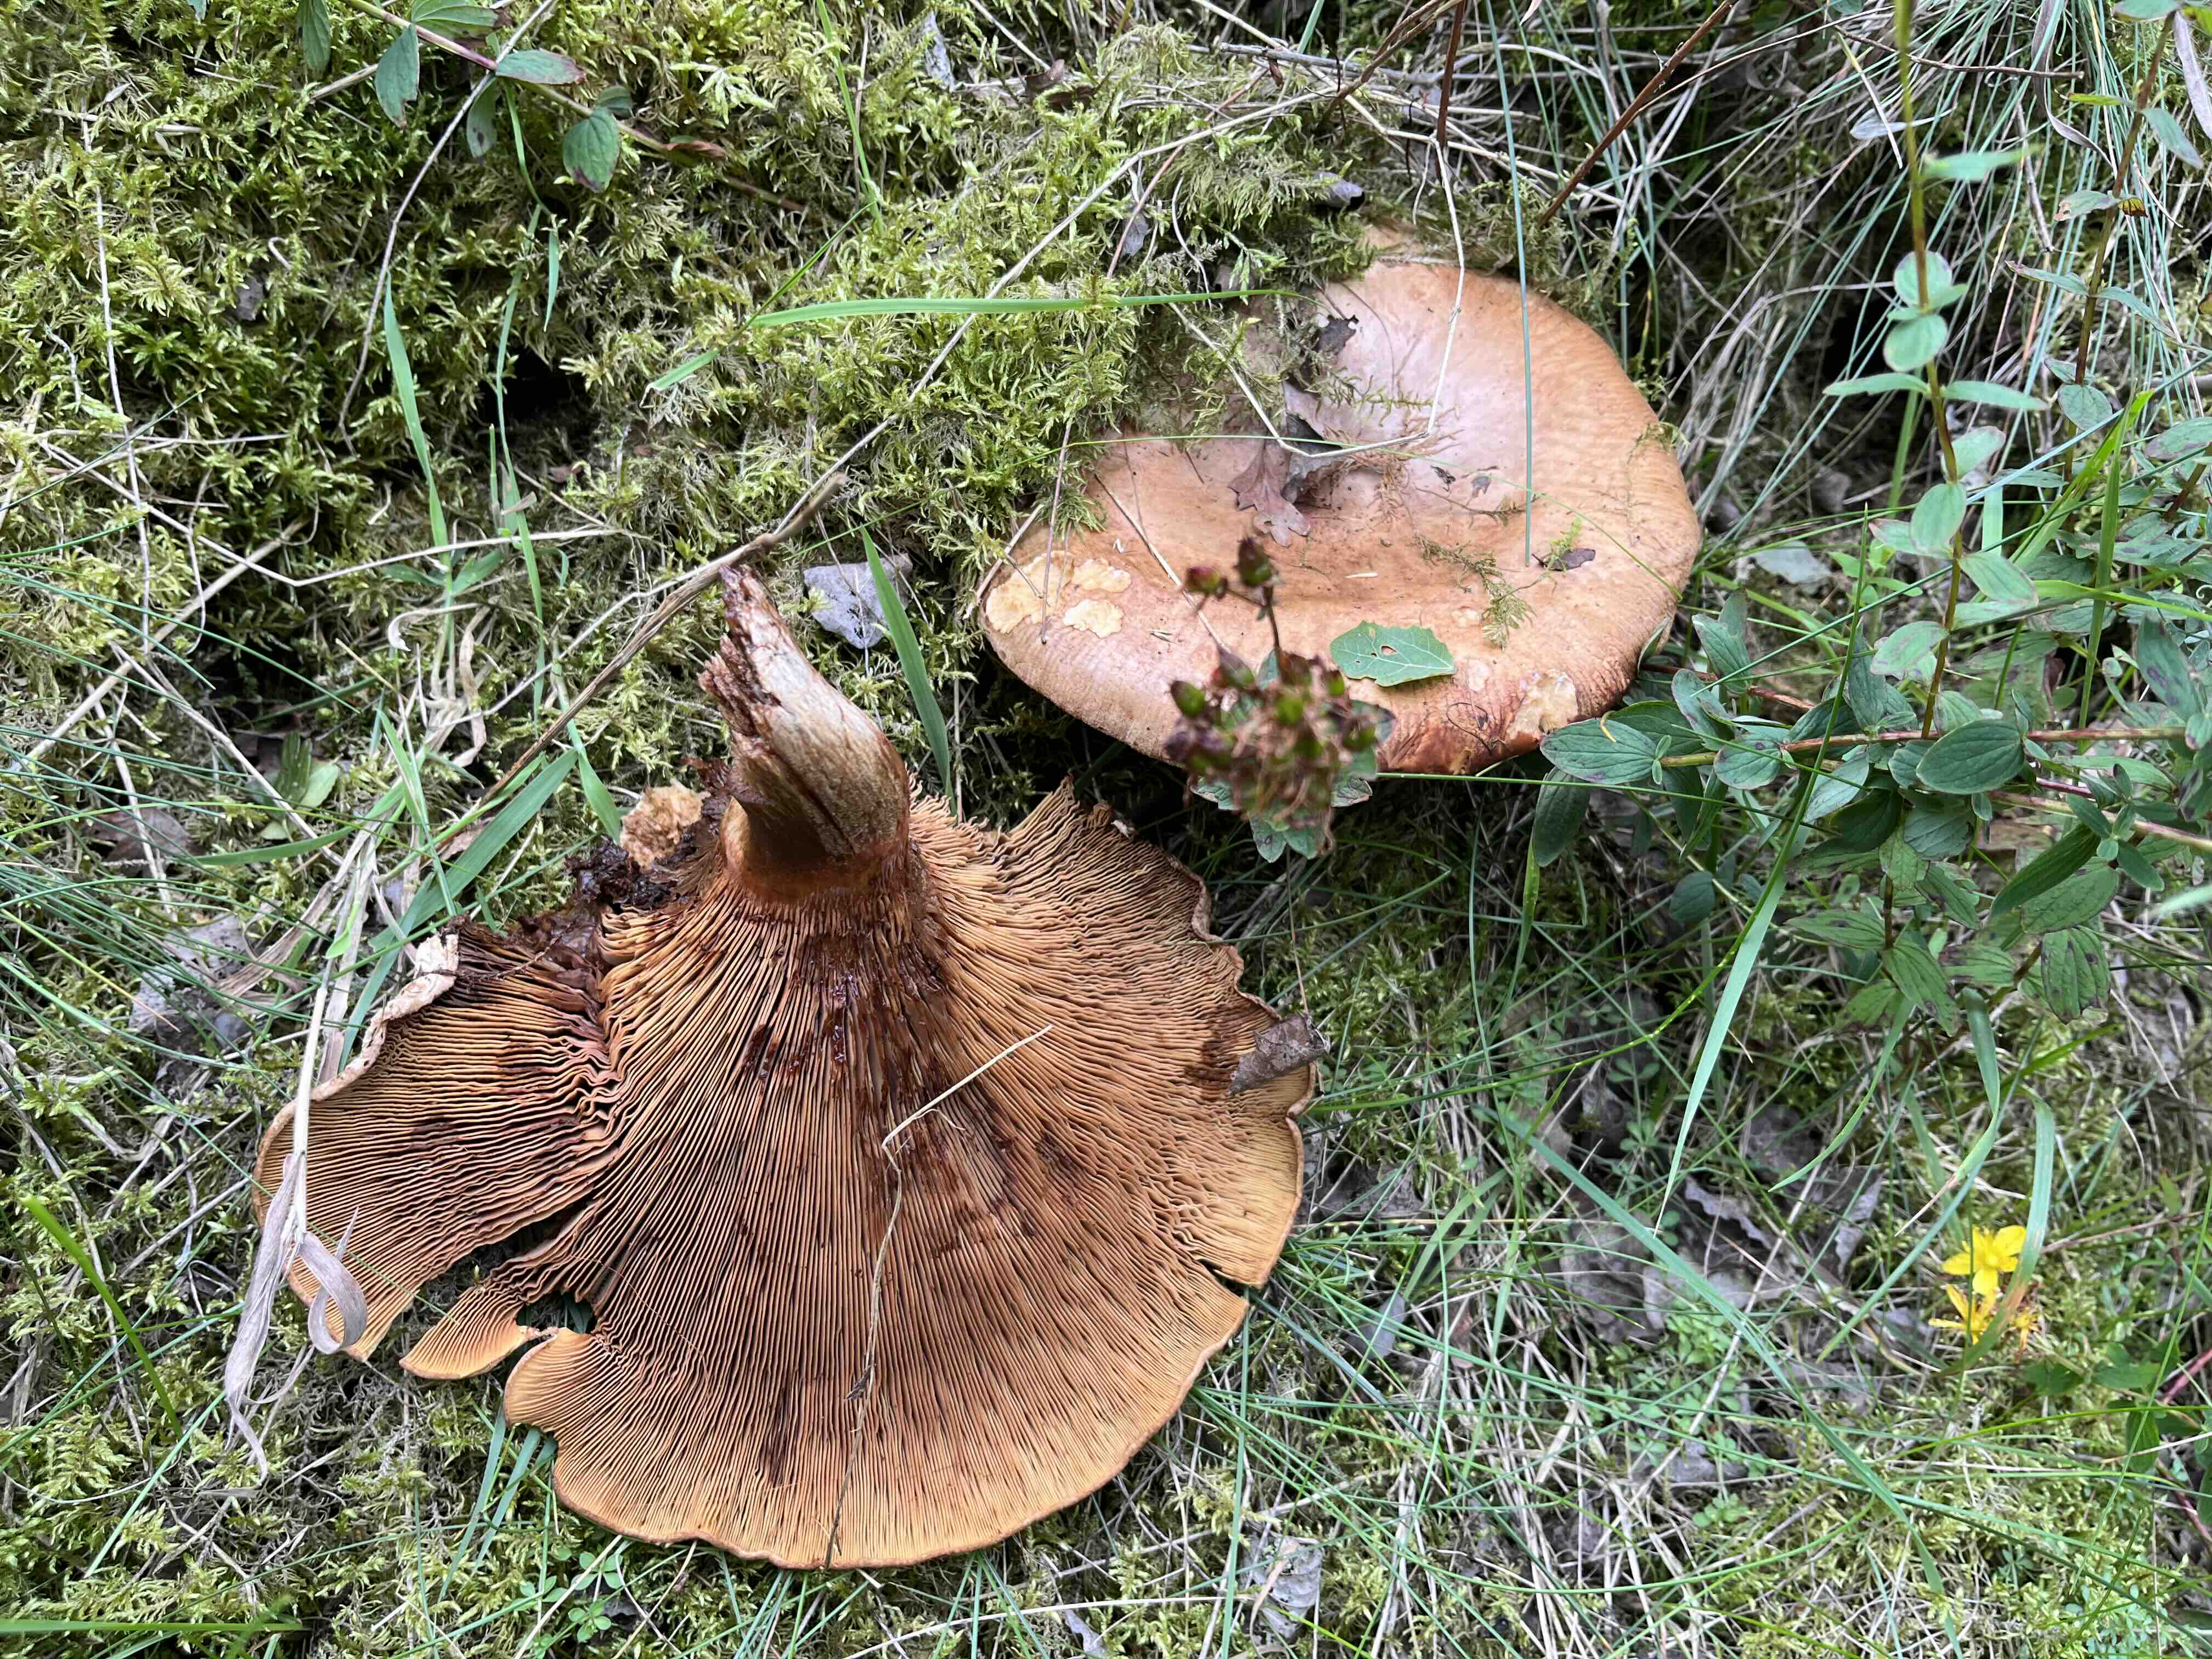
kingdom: Fungi
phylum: Basidiomycota
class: Agaricomycetes
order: Boletales
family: Paxillaceae
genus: Paxillus
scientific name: Paxillus involutus
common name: almindelig netbladhat
